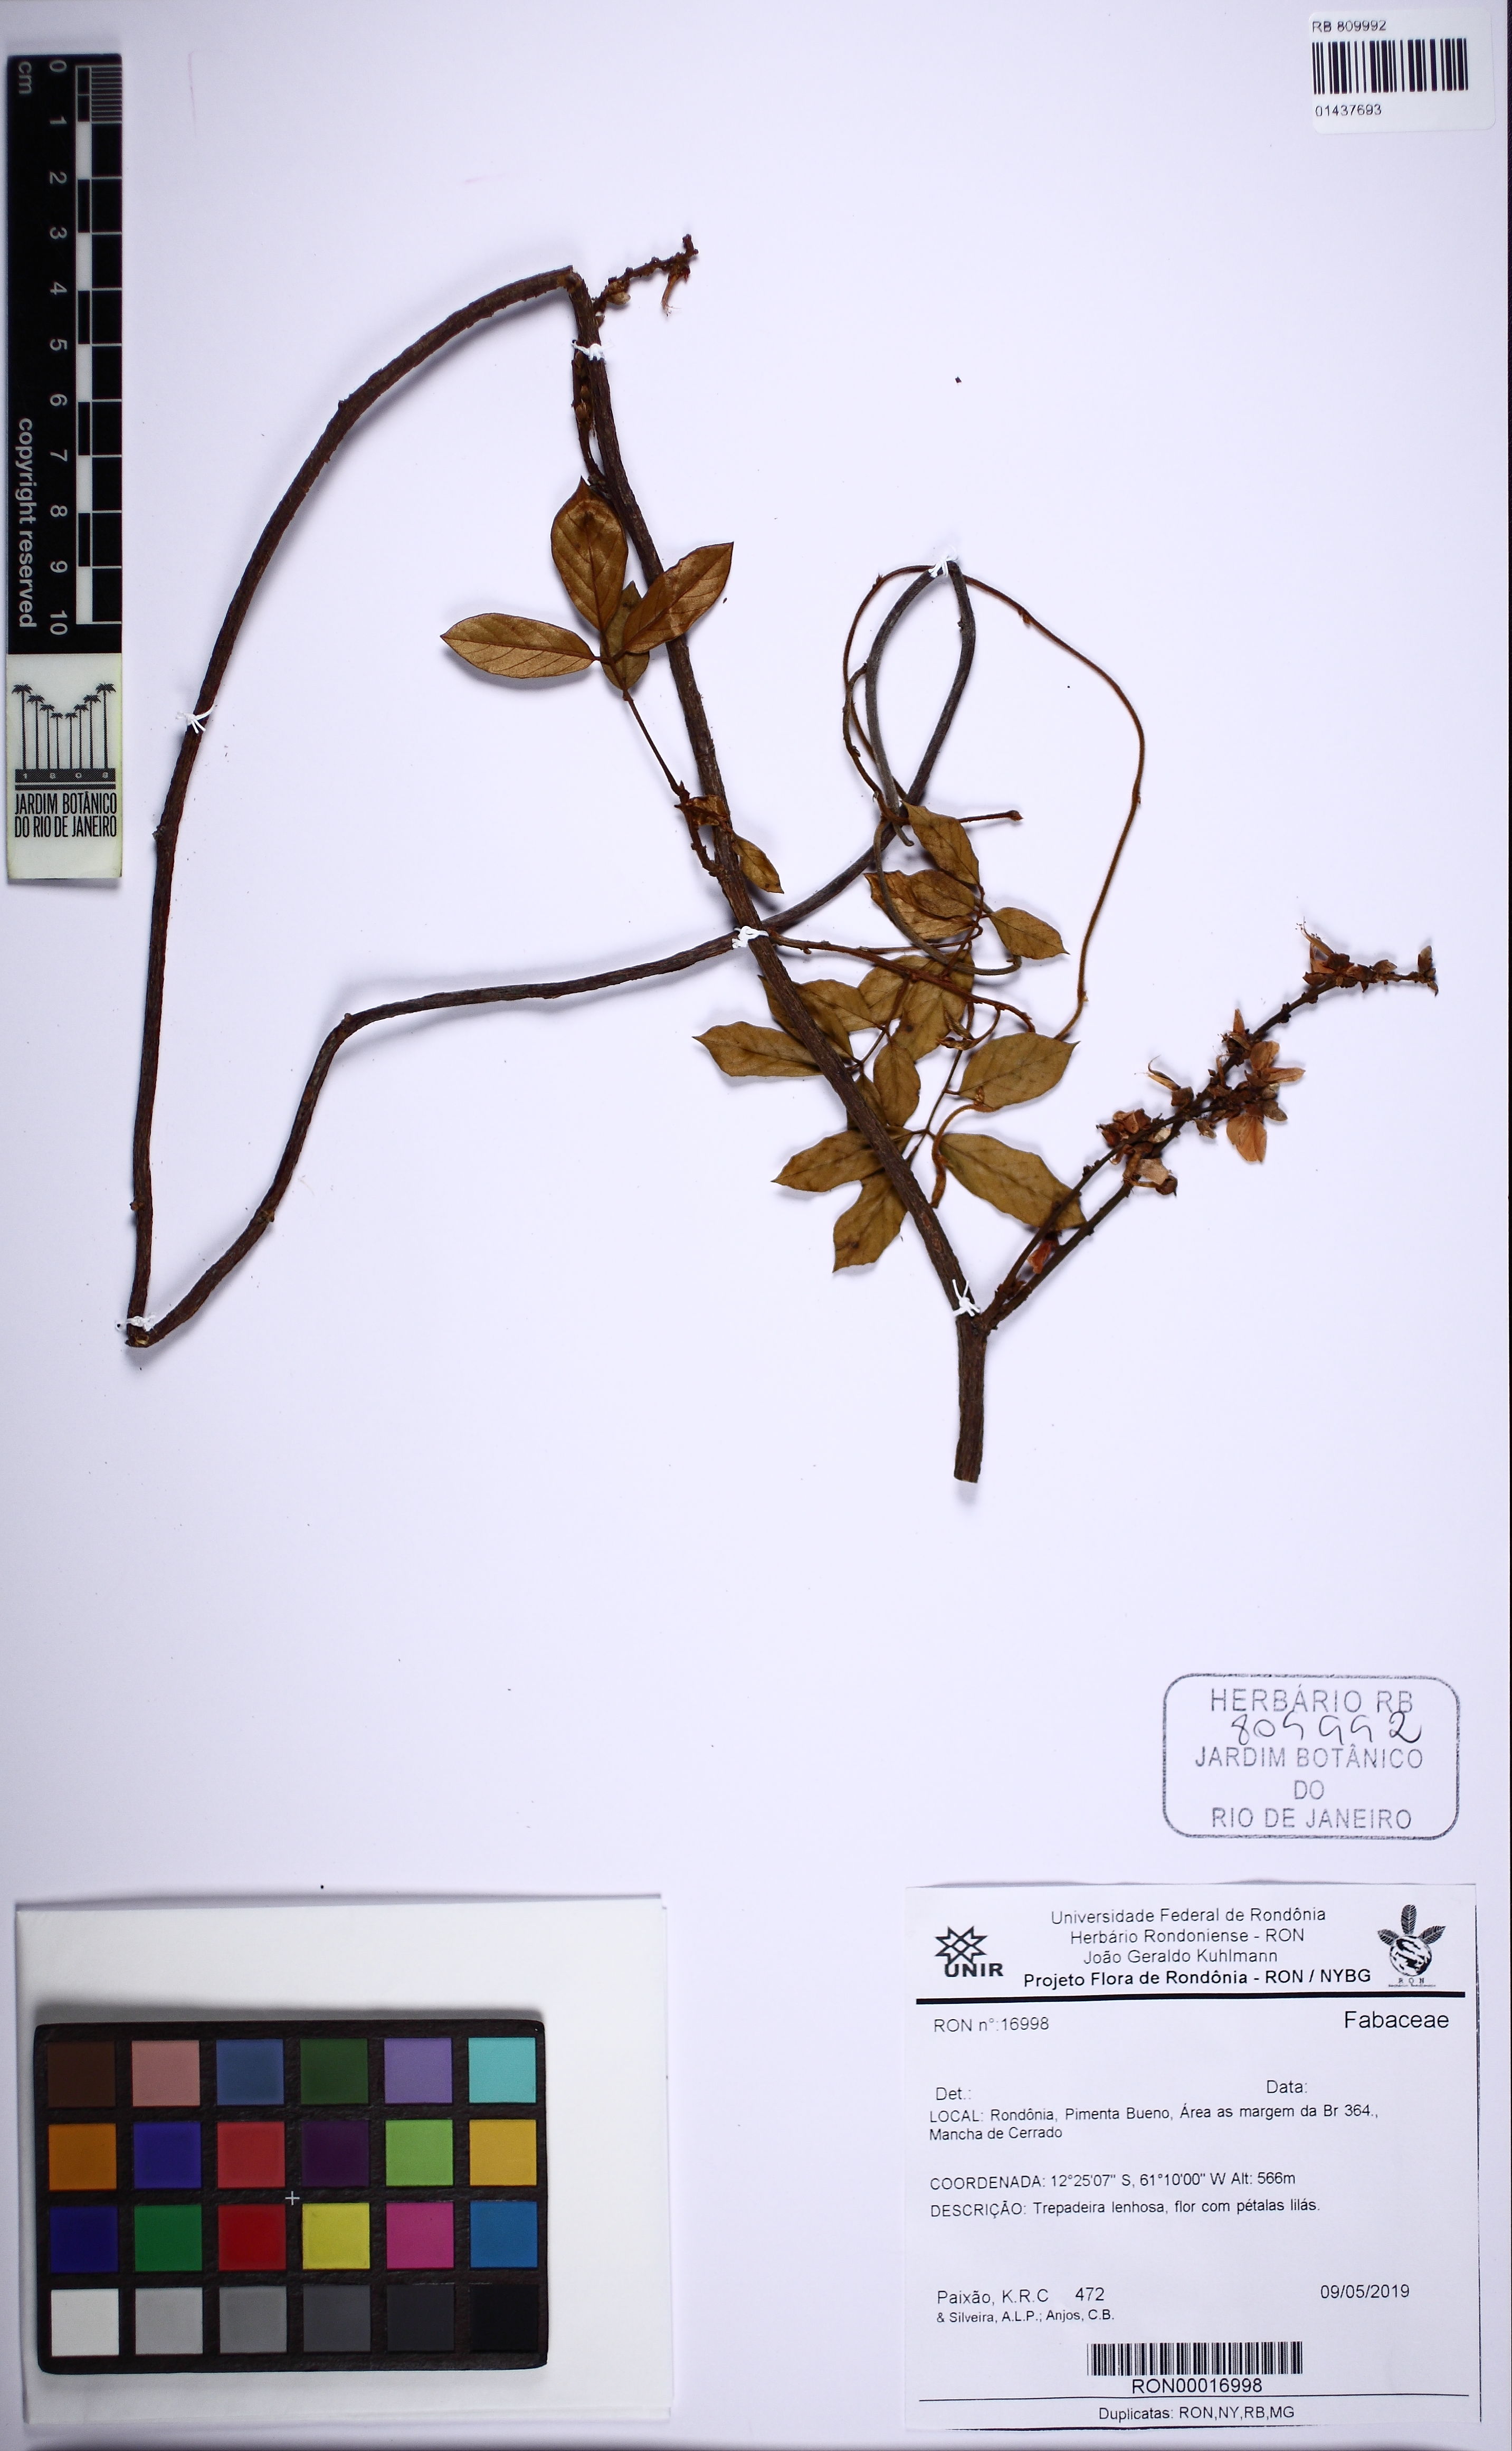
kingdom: Plantae
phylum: Tracheophyta
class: Magnoliopsida
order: Fabales
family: Fabaceae
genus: Deguelia
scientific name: Deguelia
